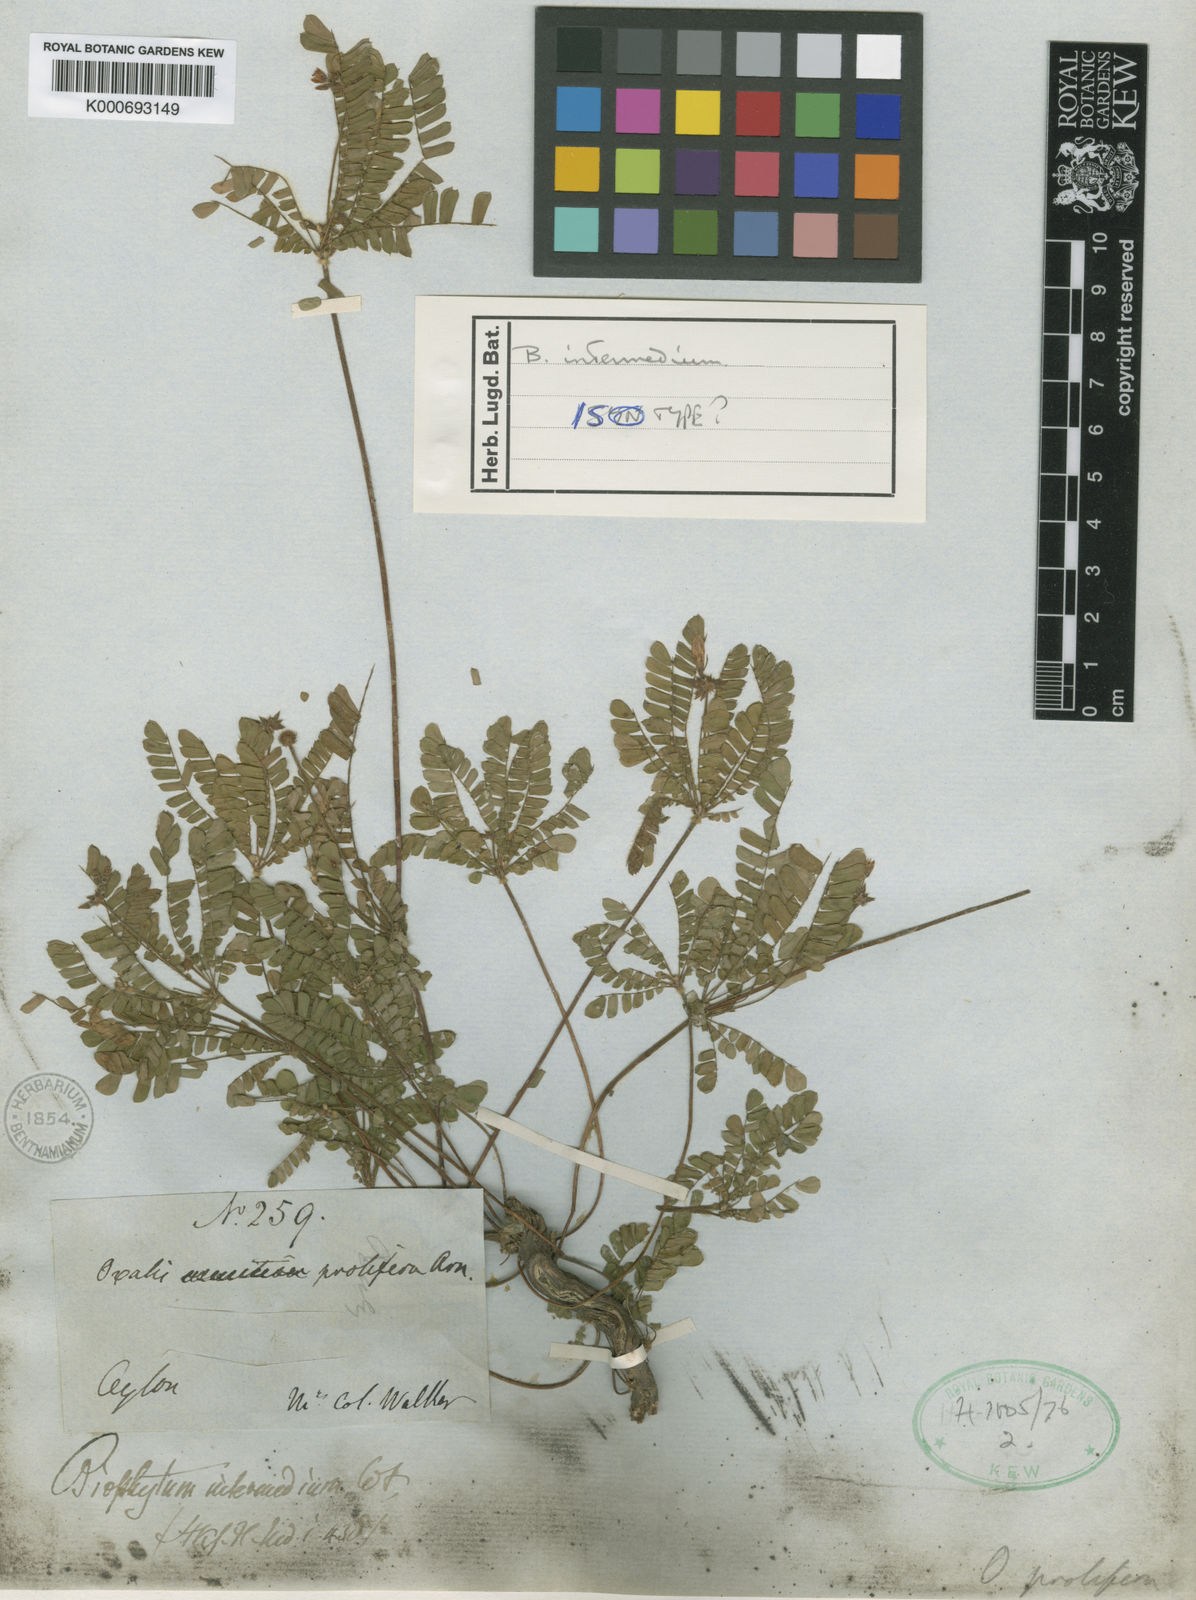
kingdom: Plantae
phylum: Tracheophyta
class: Magnoliopsida
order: Oxalidales
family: Oxalidaceae
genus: Biophytum
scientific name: Biophytum proliferum
